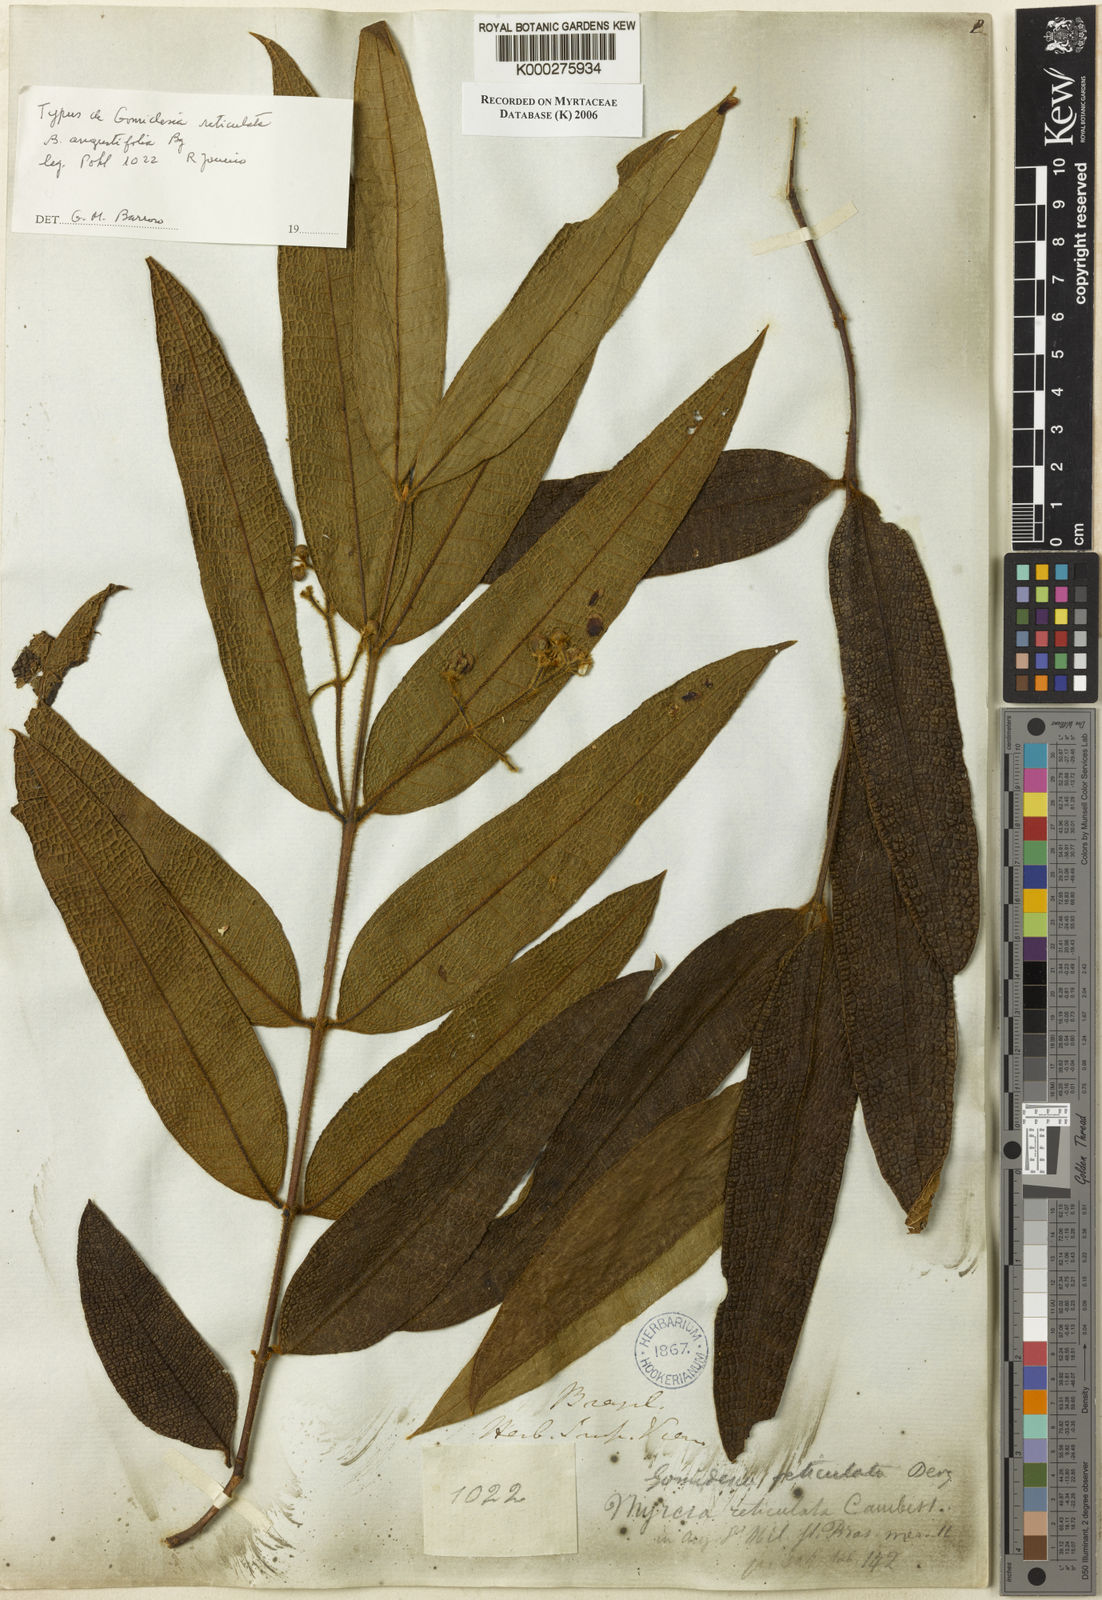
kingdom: Plantae
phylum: Tracheophyta
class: Magnoliopsida
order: Myrtales
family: Myrtaceae
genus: Myrcia
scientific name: Myrcia reticulata
